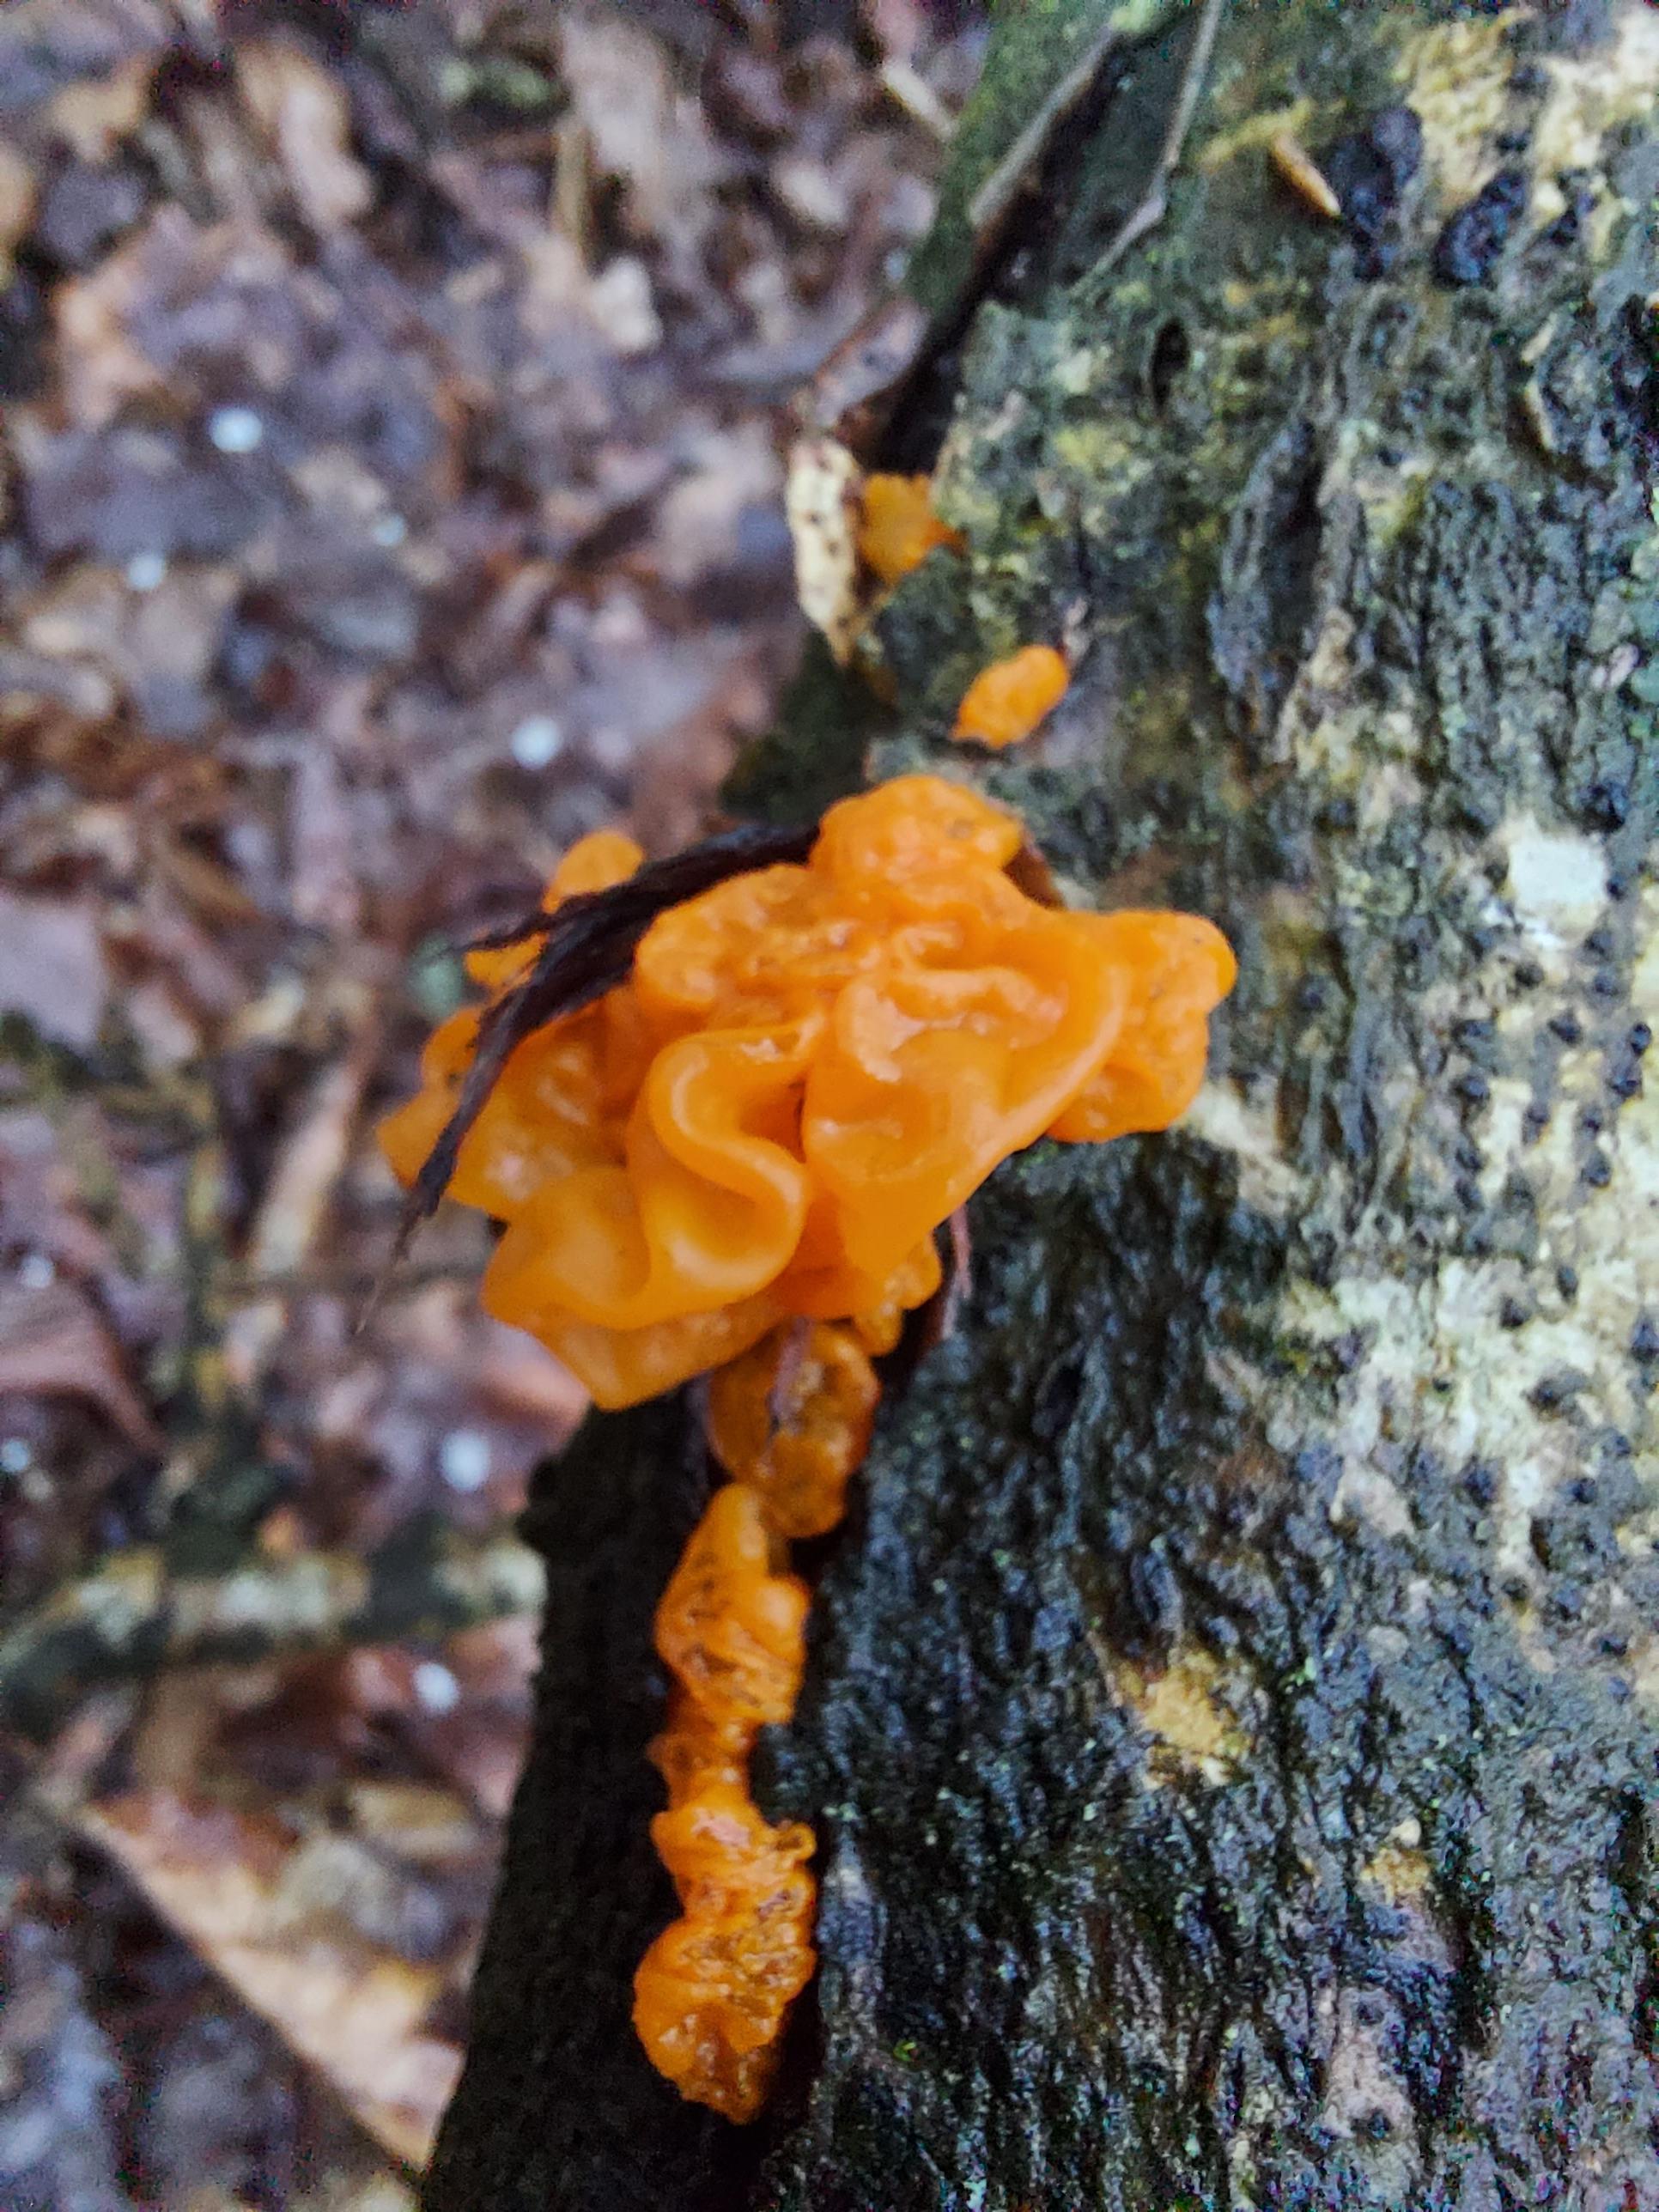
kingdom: Fungi
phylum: Basidiomycota
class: Tremellomycetes
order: Tremellales
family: Tremellaceae
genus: Tremella
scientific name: Tremella mesenterica
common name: gul bævresvamp
